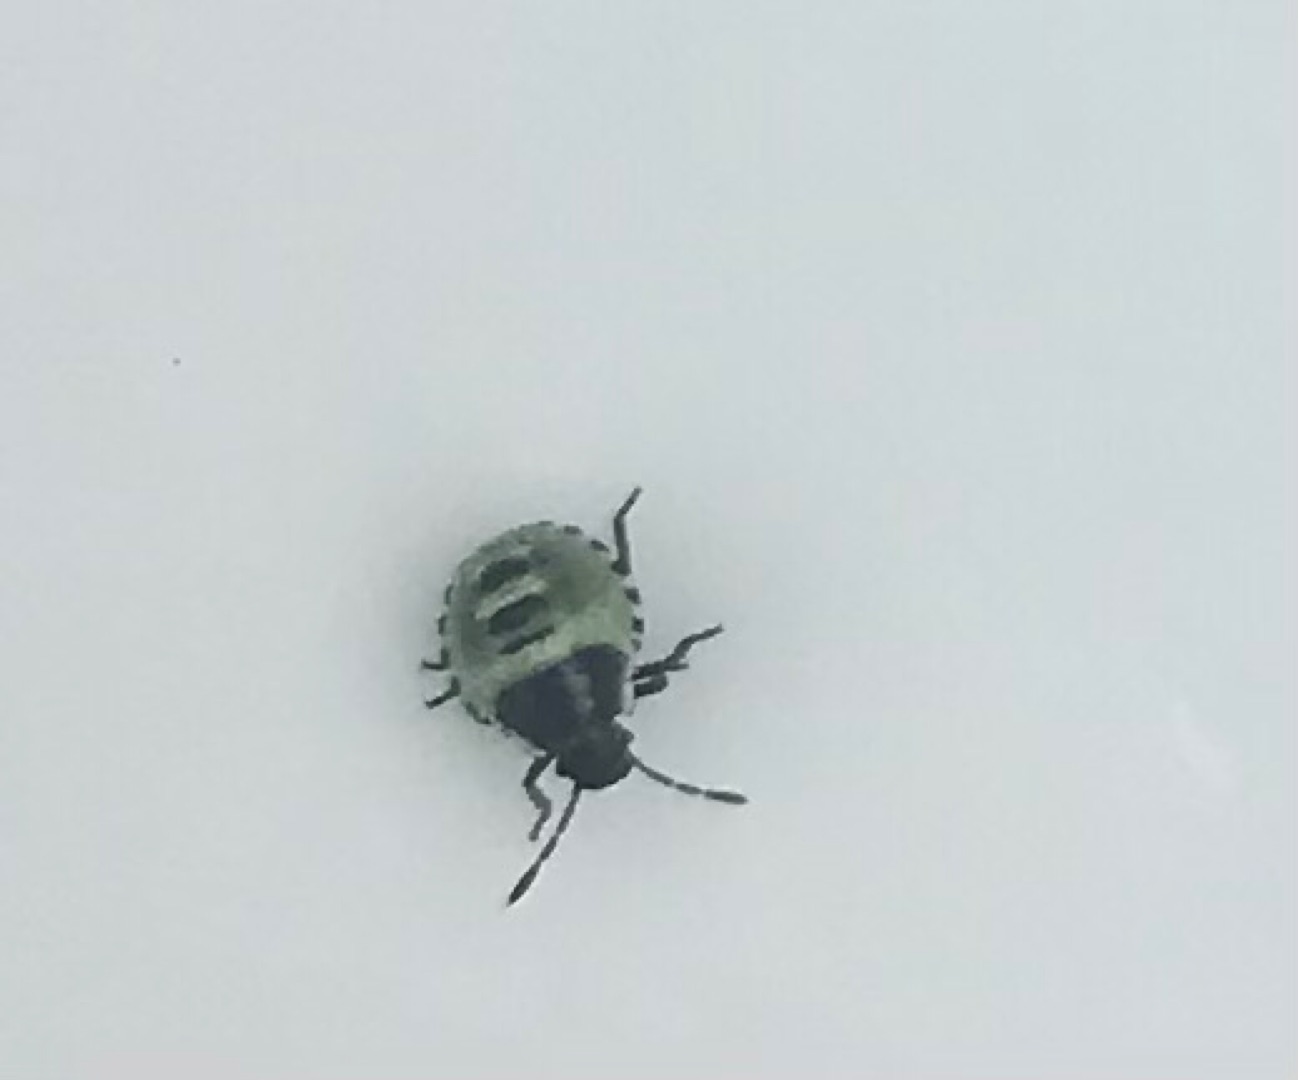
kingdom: Animalia
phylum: Arthropoda
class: Insecta
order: Hemiptera
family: Pentatomidae
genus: Palomena
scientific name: Palomena prasina
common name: Grøn bredtæge
